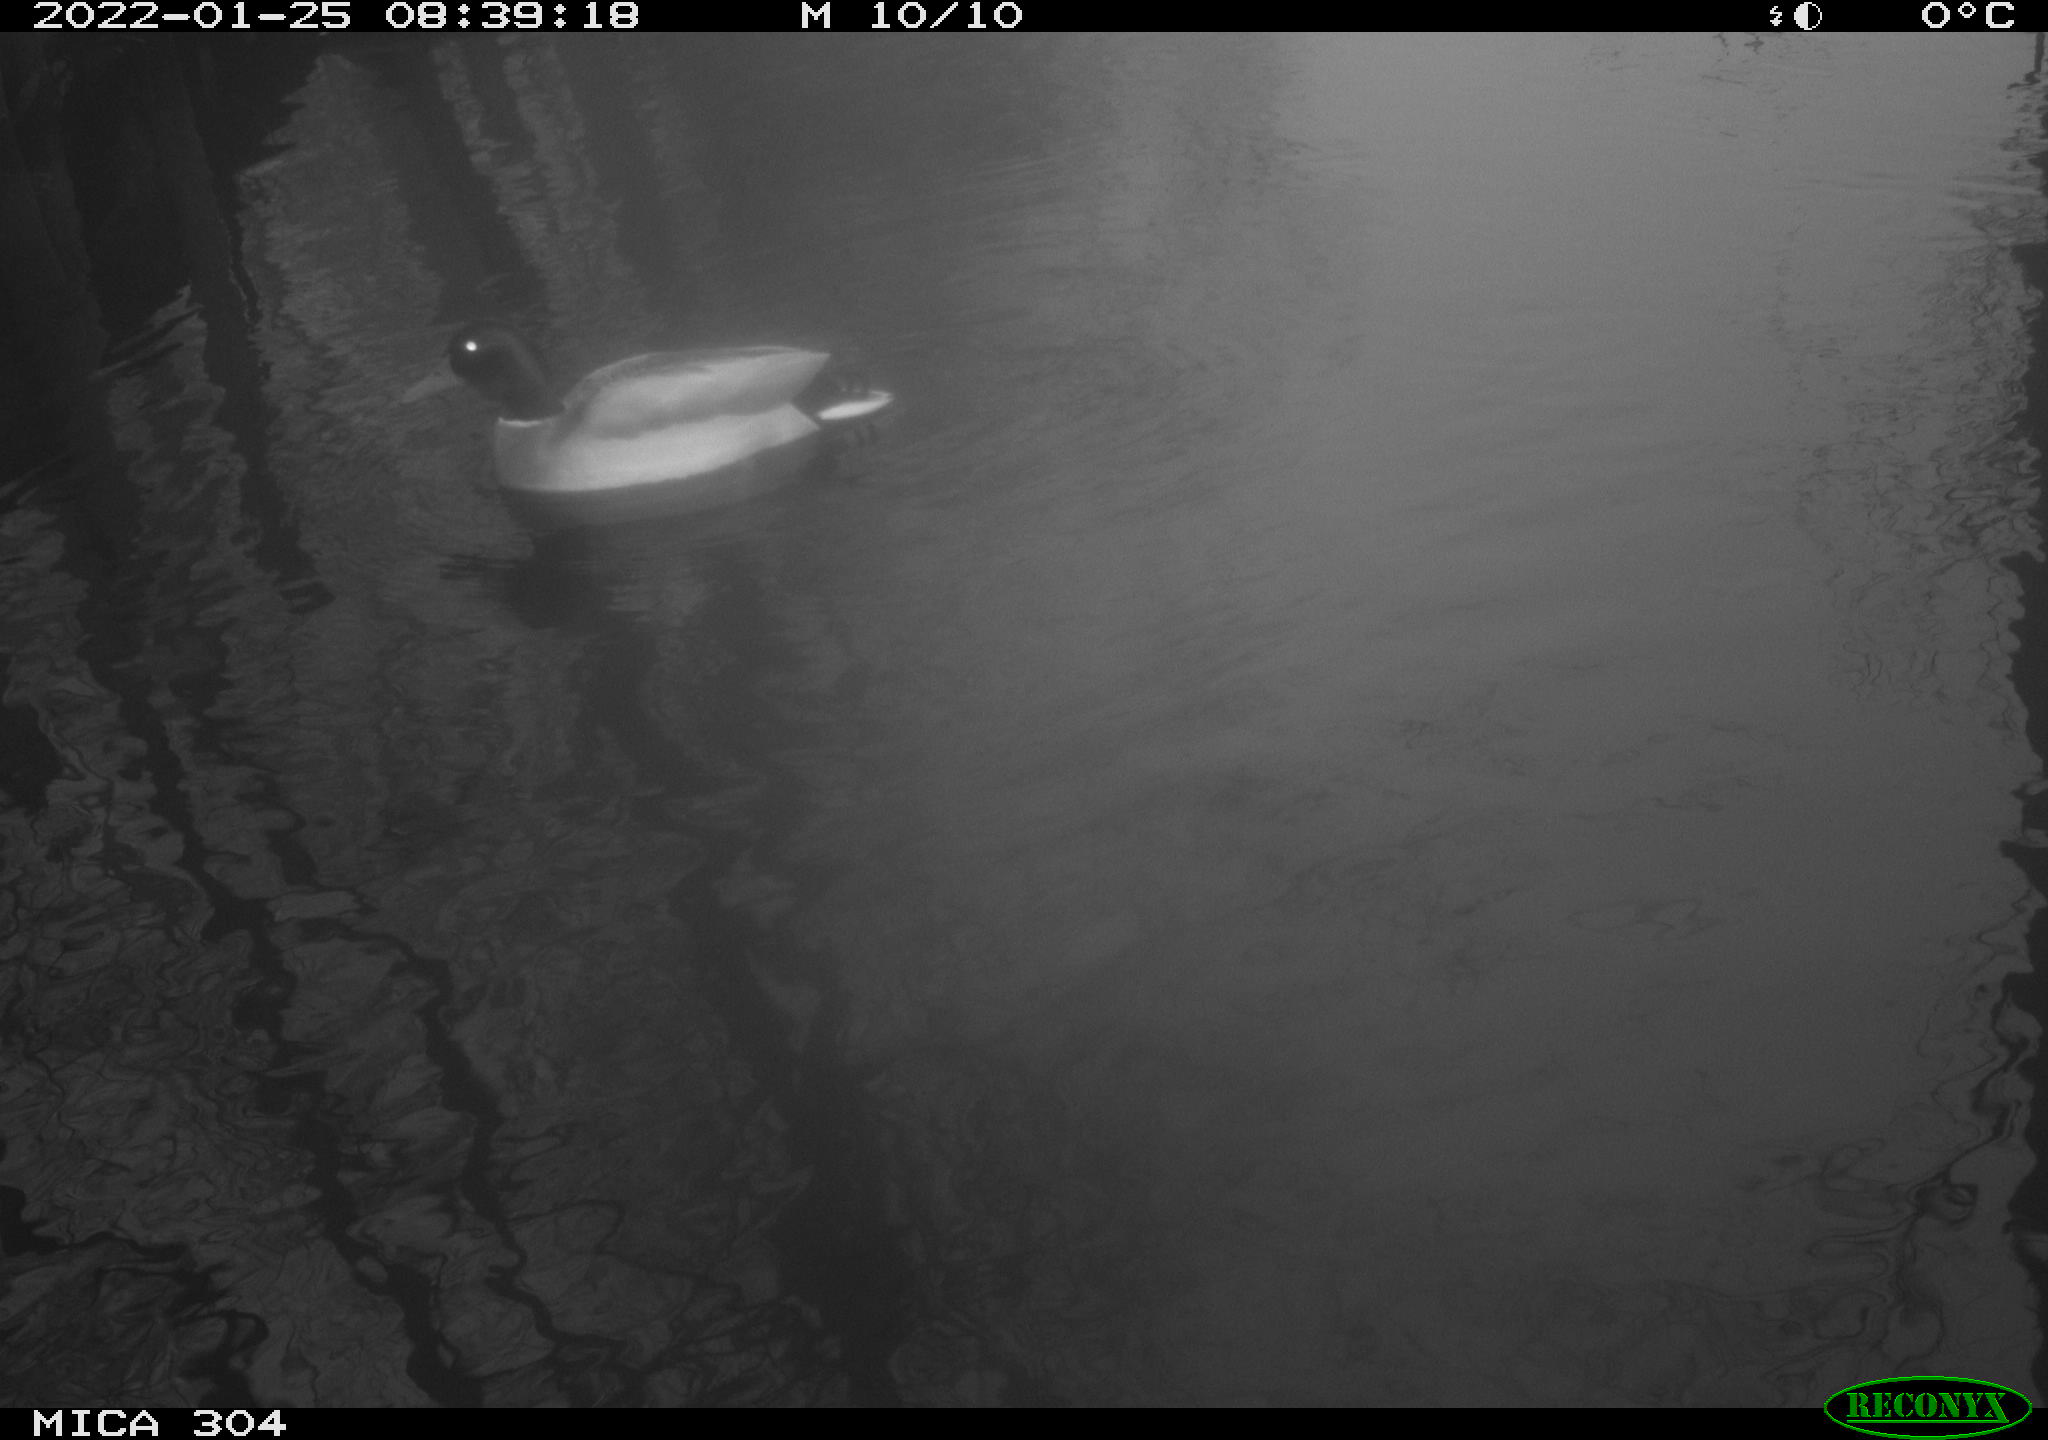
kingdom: Animalia
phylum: Chordata
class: Aves
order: Anseriformes
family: Anatidae
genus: Anas
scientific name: Anas
